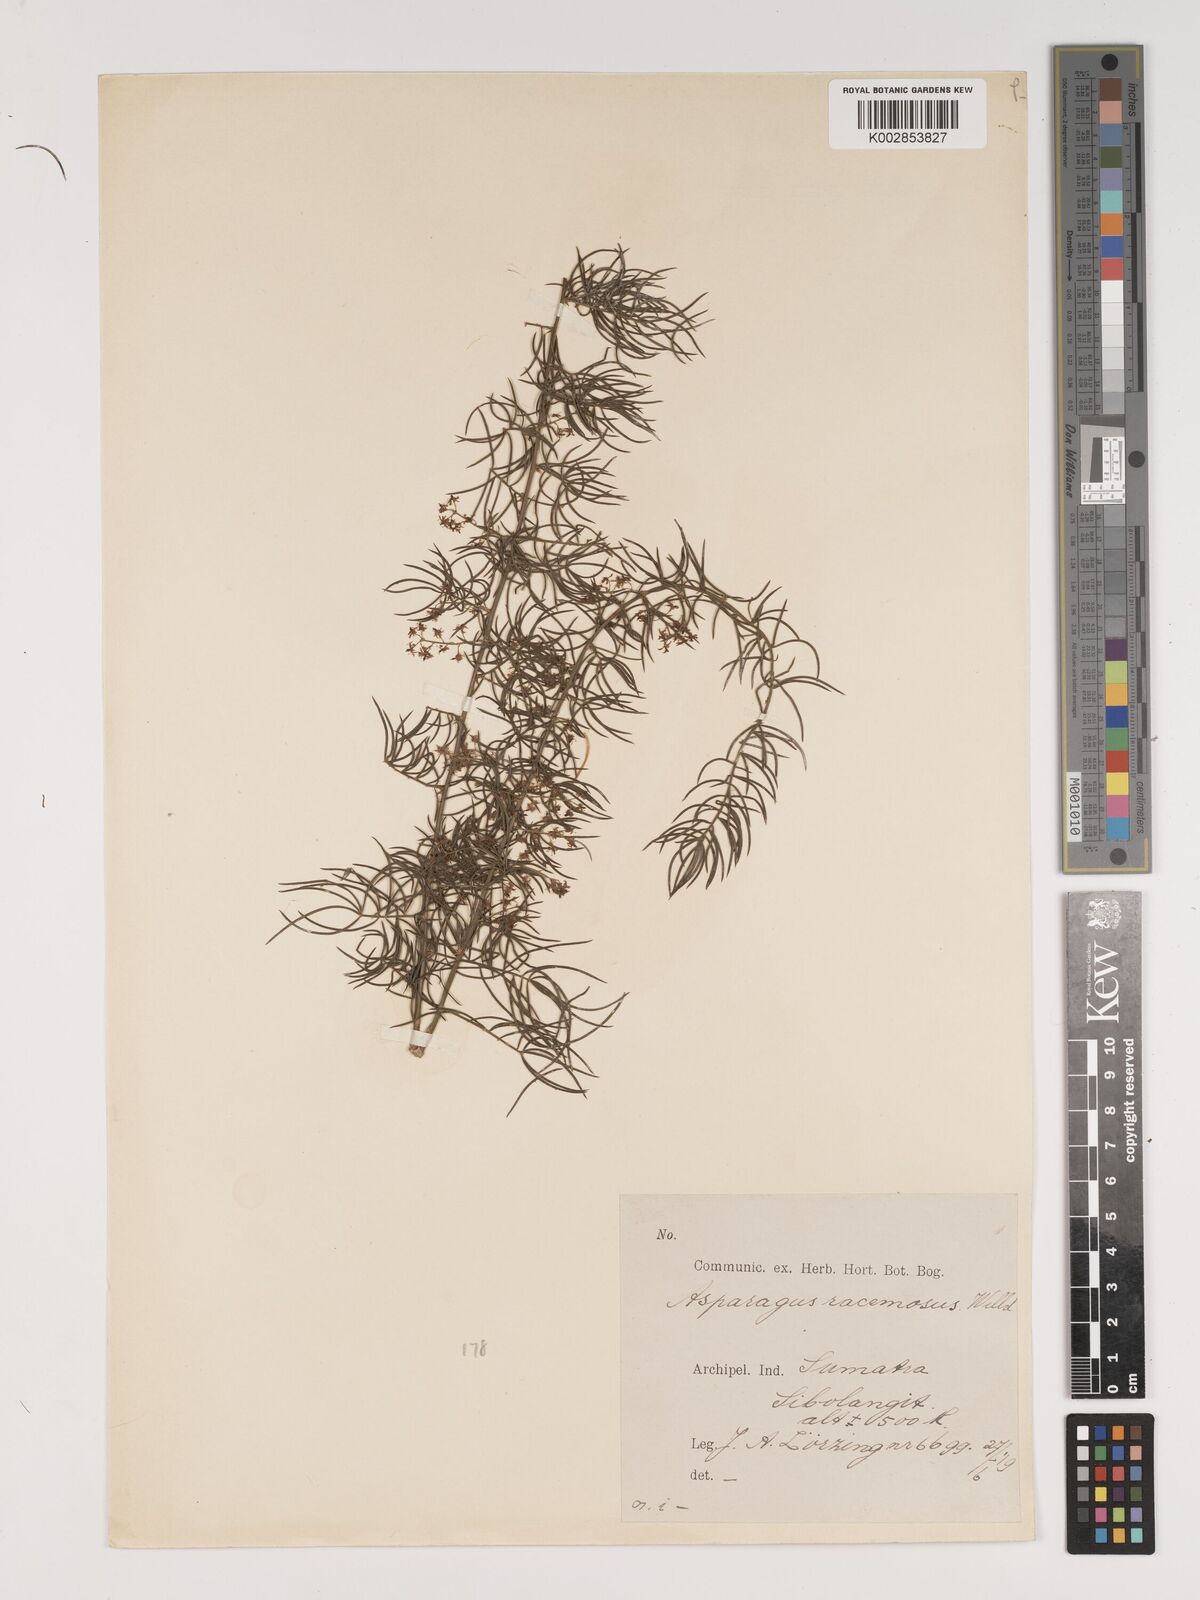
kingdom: Plantae
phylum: Tracheophyta
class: Liliopsida
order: Asparagales
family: Asparagaceae
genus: Asparagus
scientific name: Asparagus racemosus
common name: Asparagus-fern
